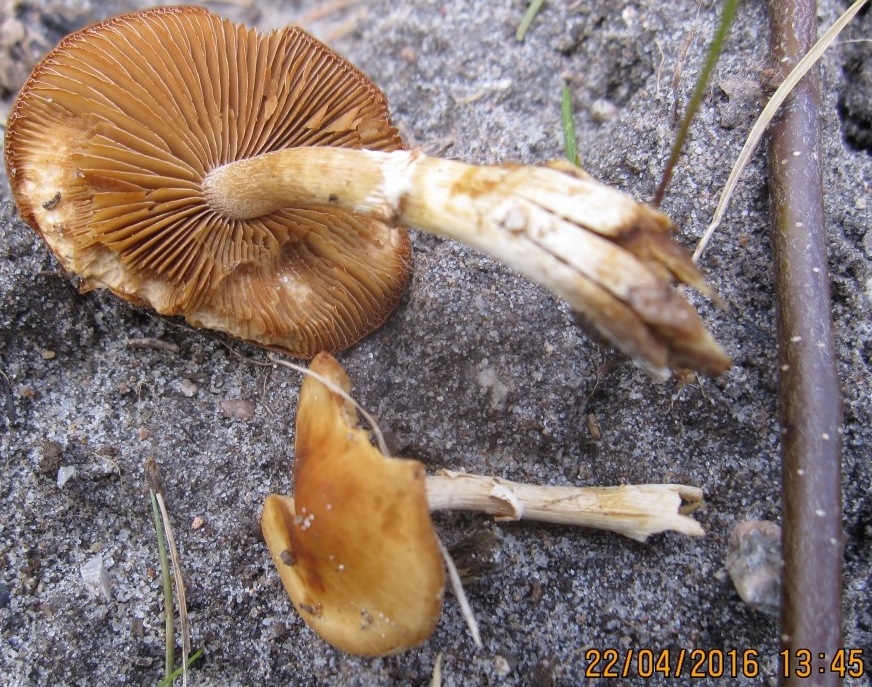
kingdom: Fungi
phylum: Basidiomycota
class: Agaricomycetes
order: Agaricales
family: Bolbitiaceae
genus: Conocybe
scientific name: Conocybe aporos
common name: tidlig dansehat
